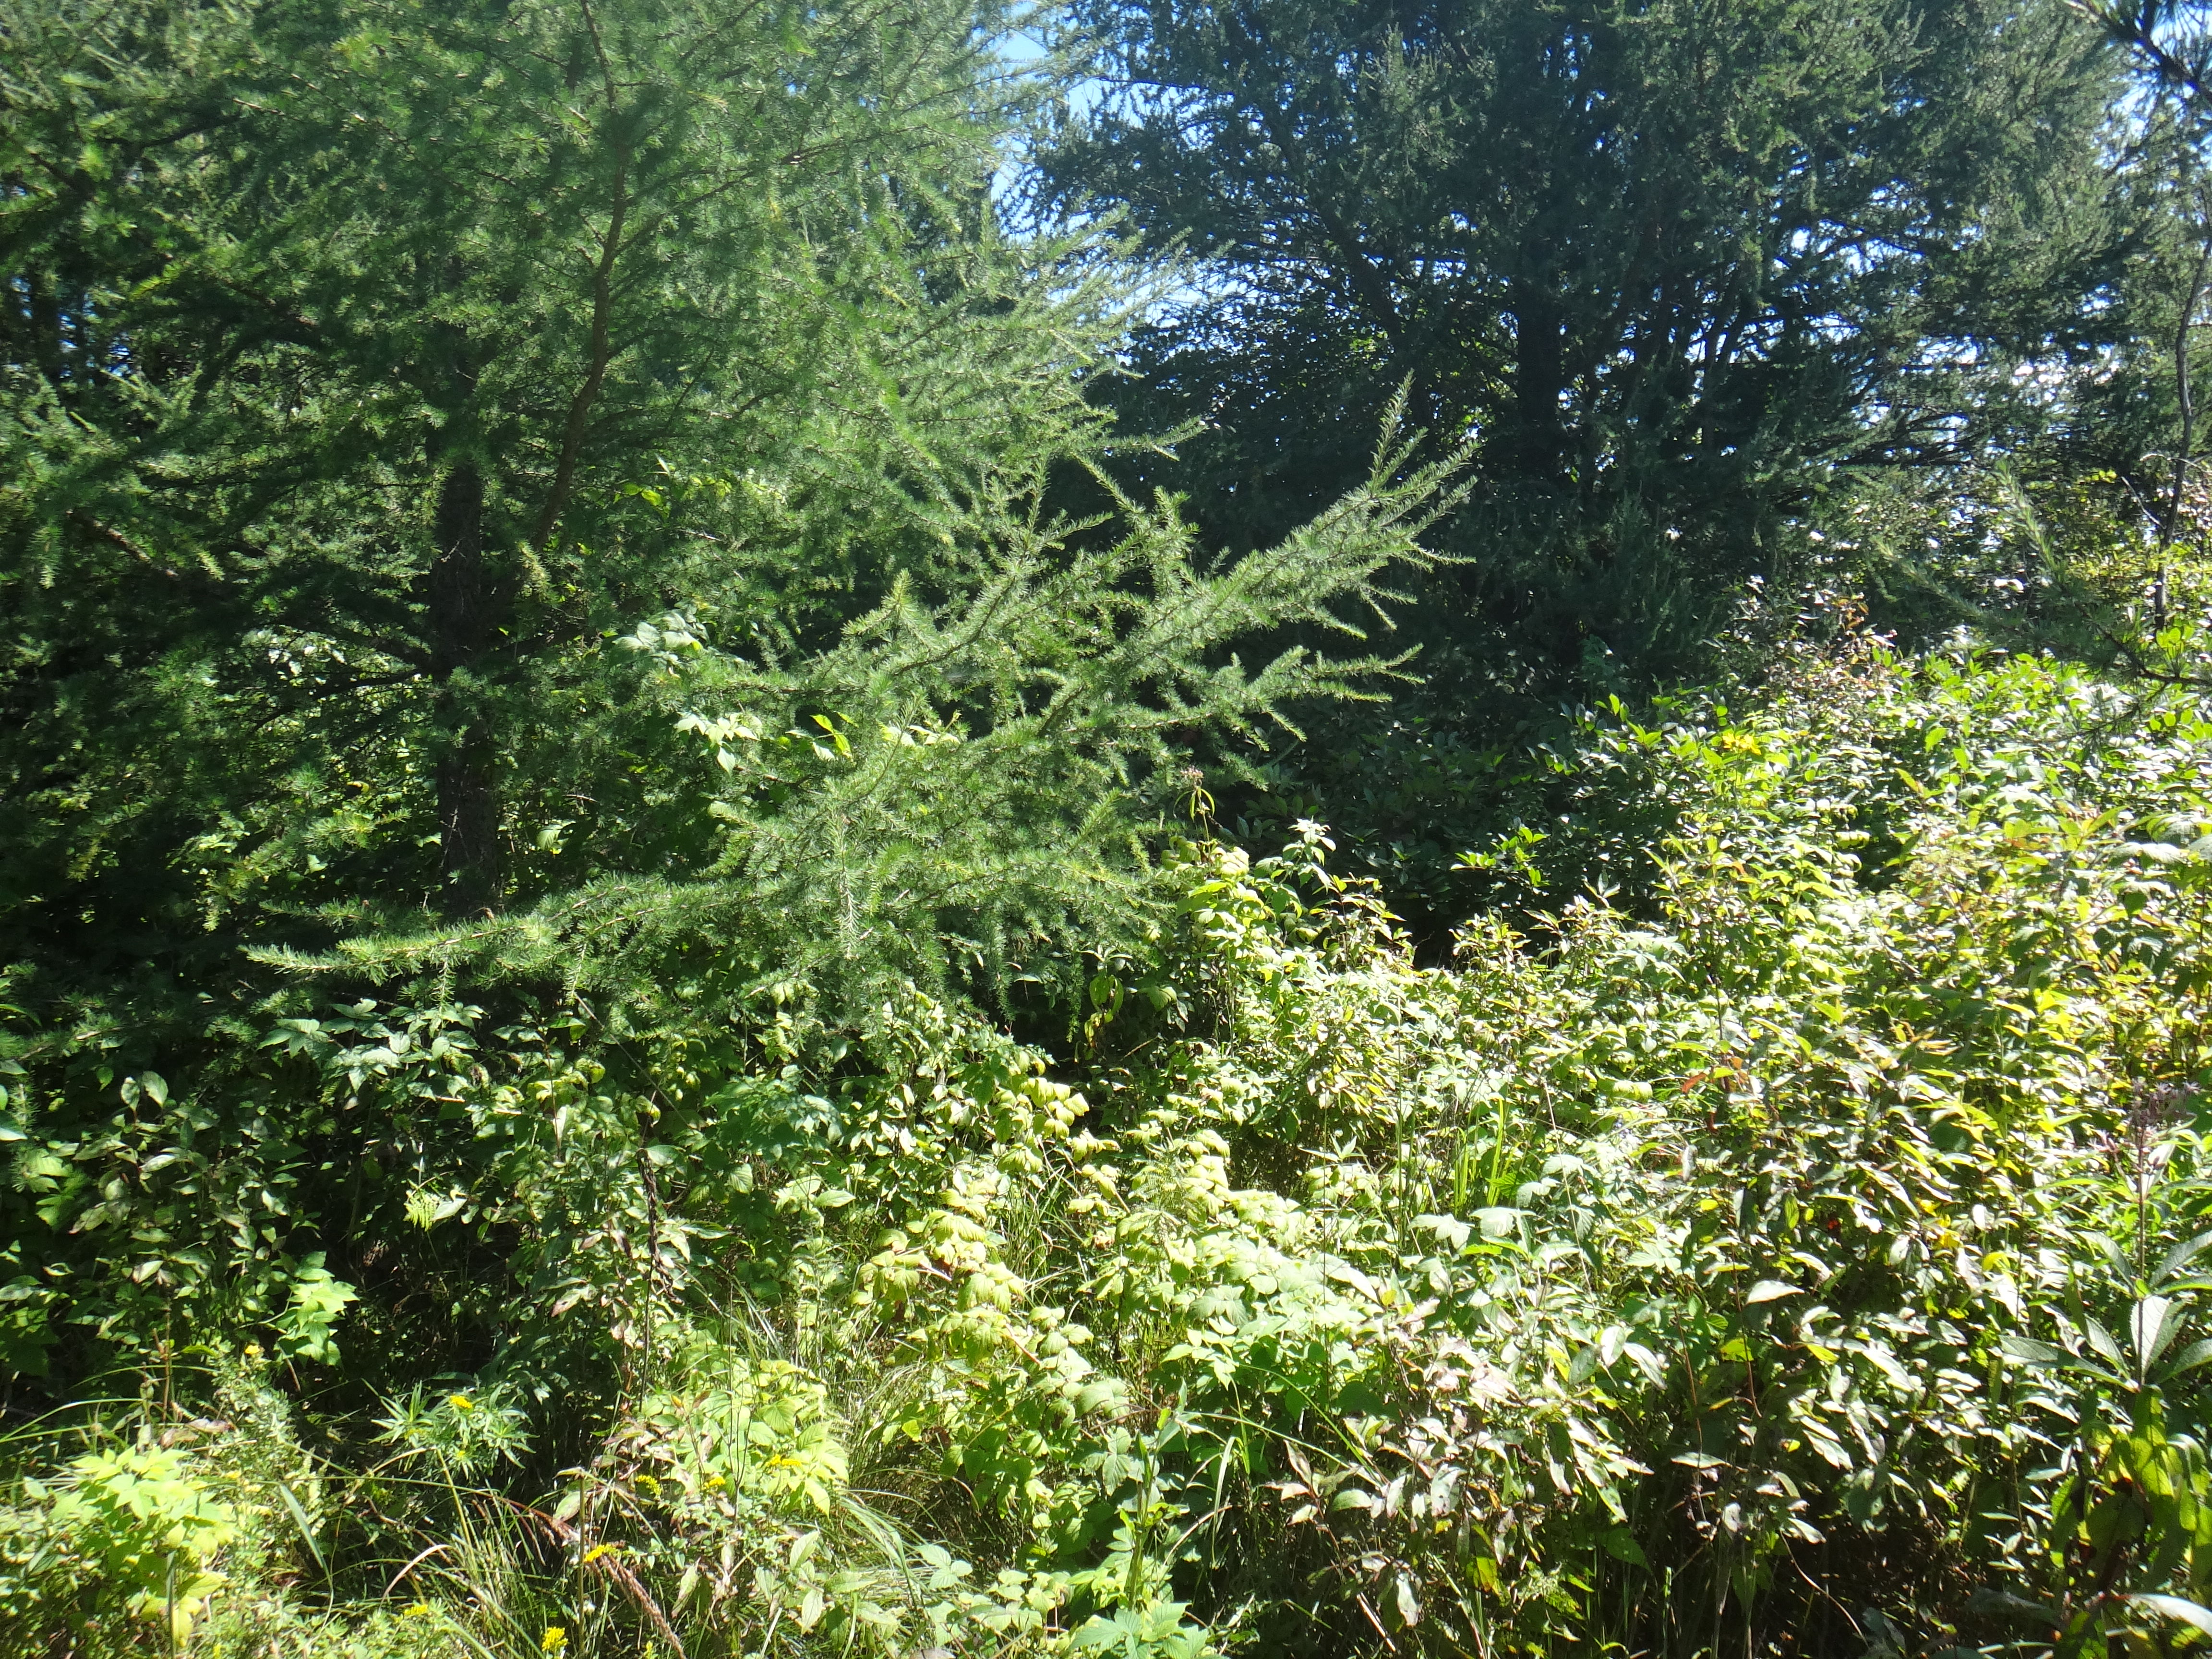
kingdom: Plantae
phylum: Tracheophyta
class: Polypodiopsida
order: Polypodiales
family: Thelypteridaceae
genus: Thelypteris
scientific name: Thelypteris palustris
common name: Marsh fern
